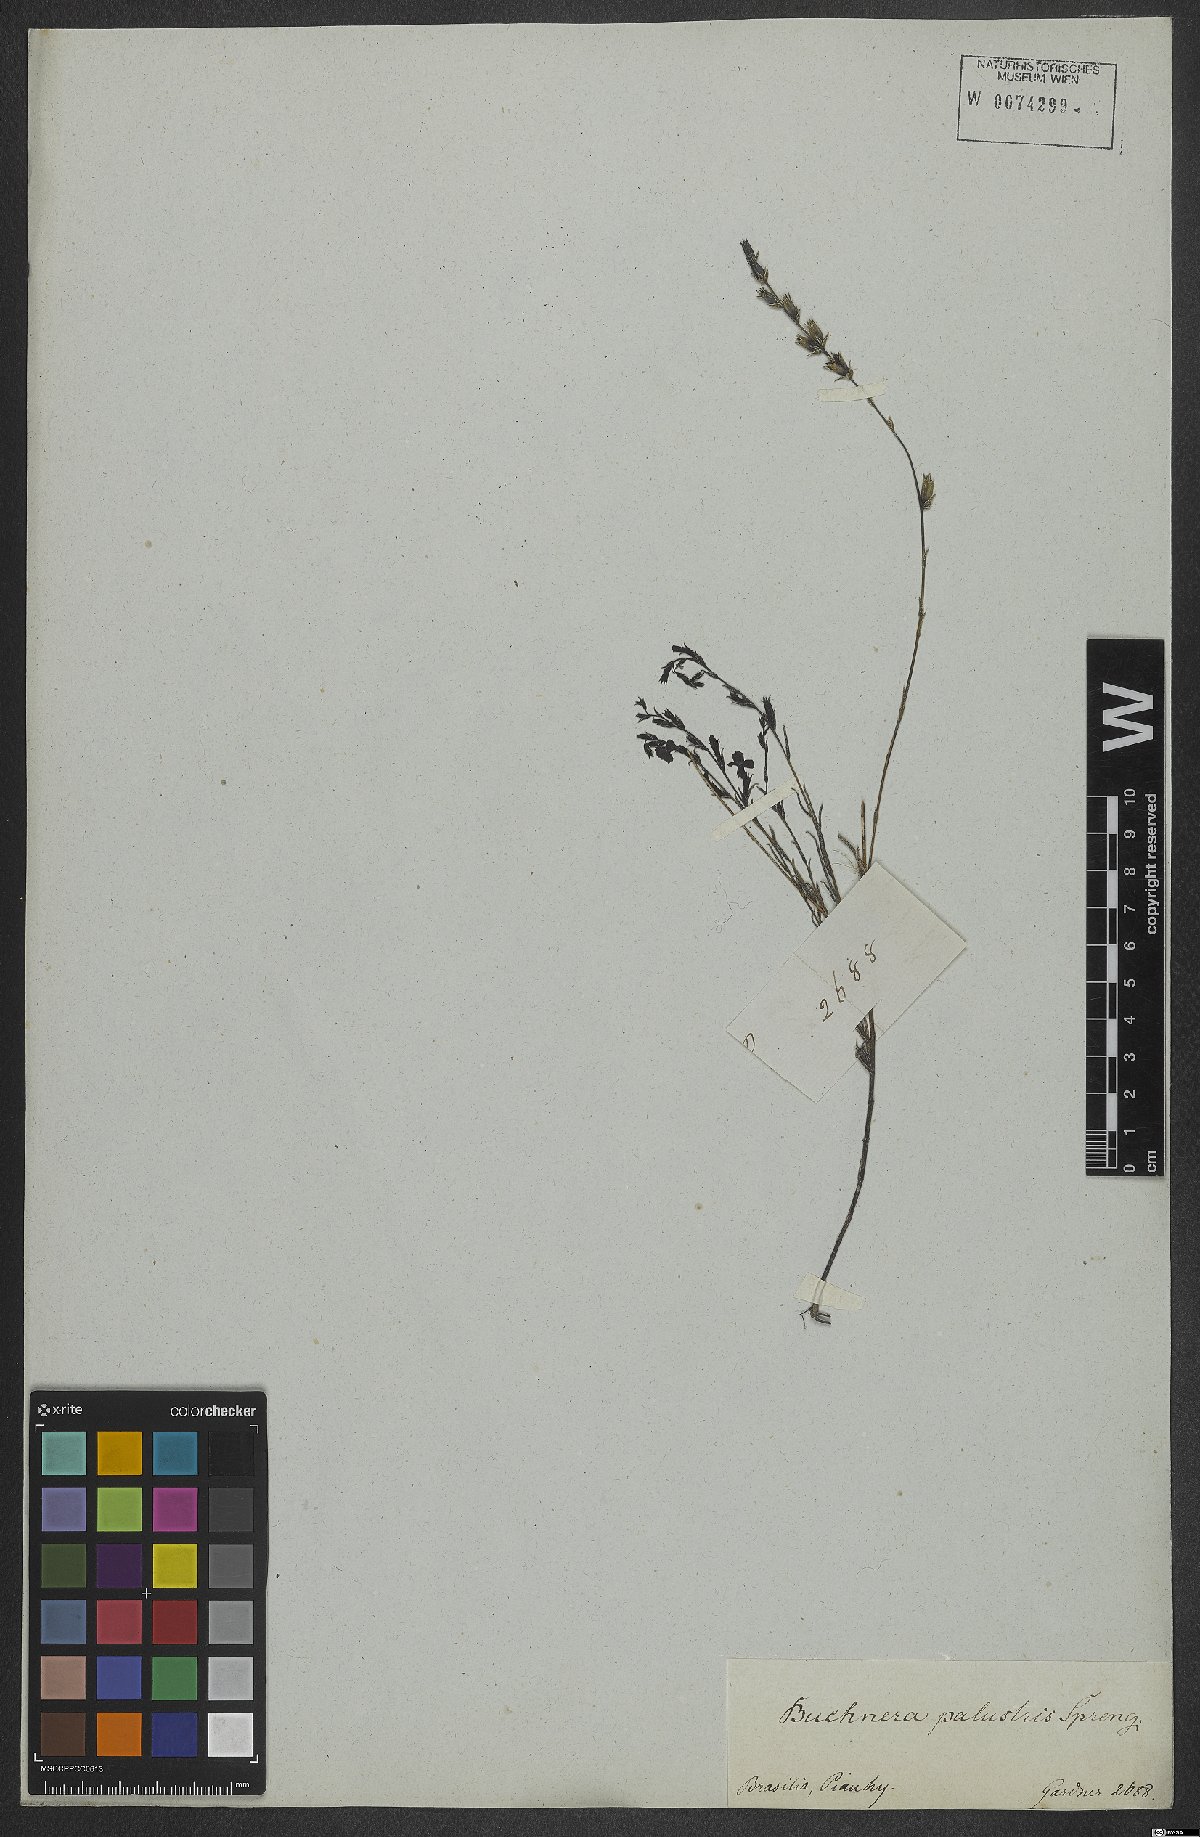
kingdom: Plantae
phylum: Tracheophyta
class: Magnoliopsida
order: Lamiales
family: Orobanchaceae
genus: Buchnera
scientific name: Buchnera palustris
